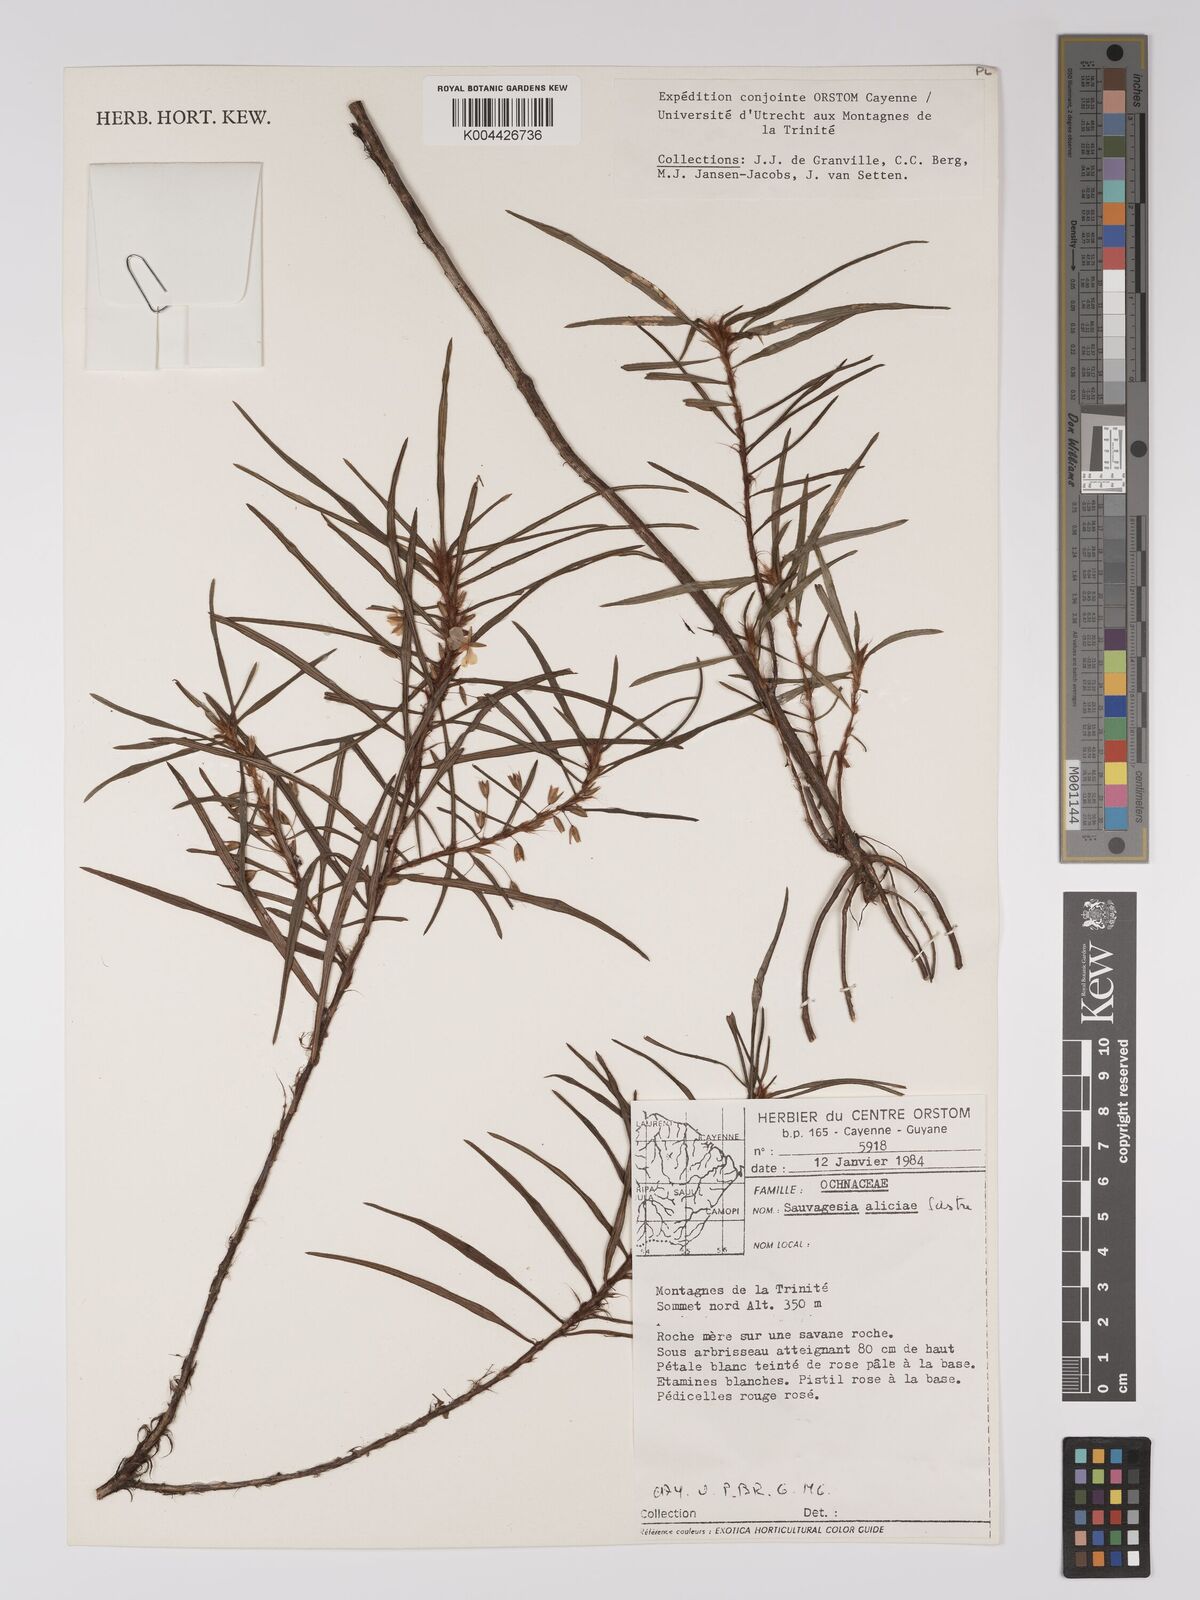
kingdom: Plantae
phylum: Tracheophyta
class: Magnoliopsida
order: Malpighiales
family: Ochnaceae
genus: Sauvagesia
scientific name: Sauvagesia aliciae
